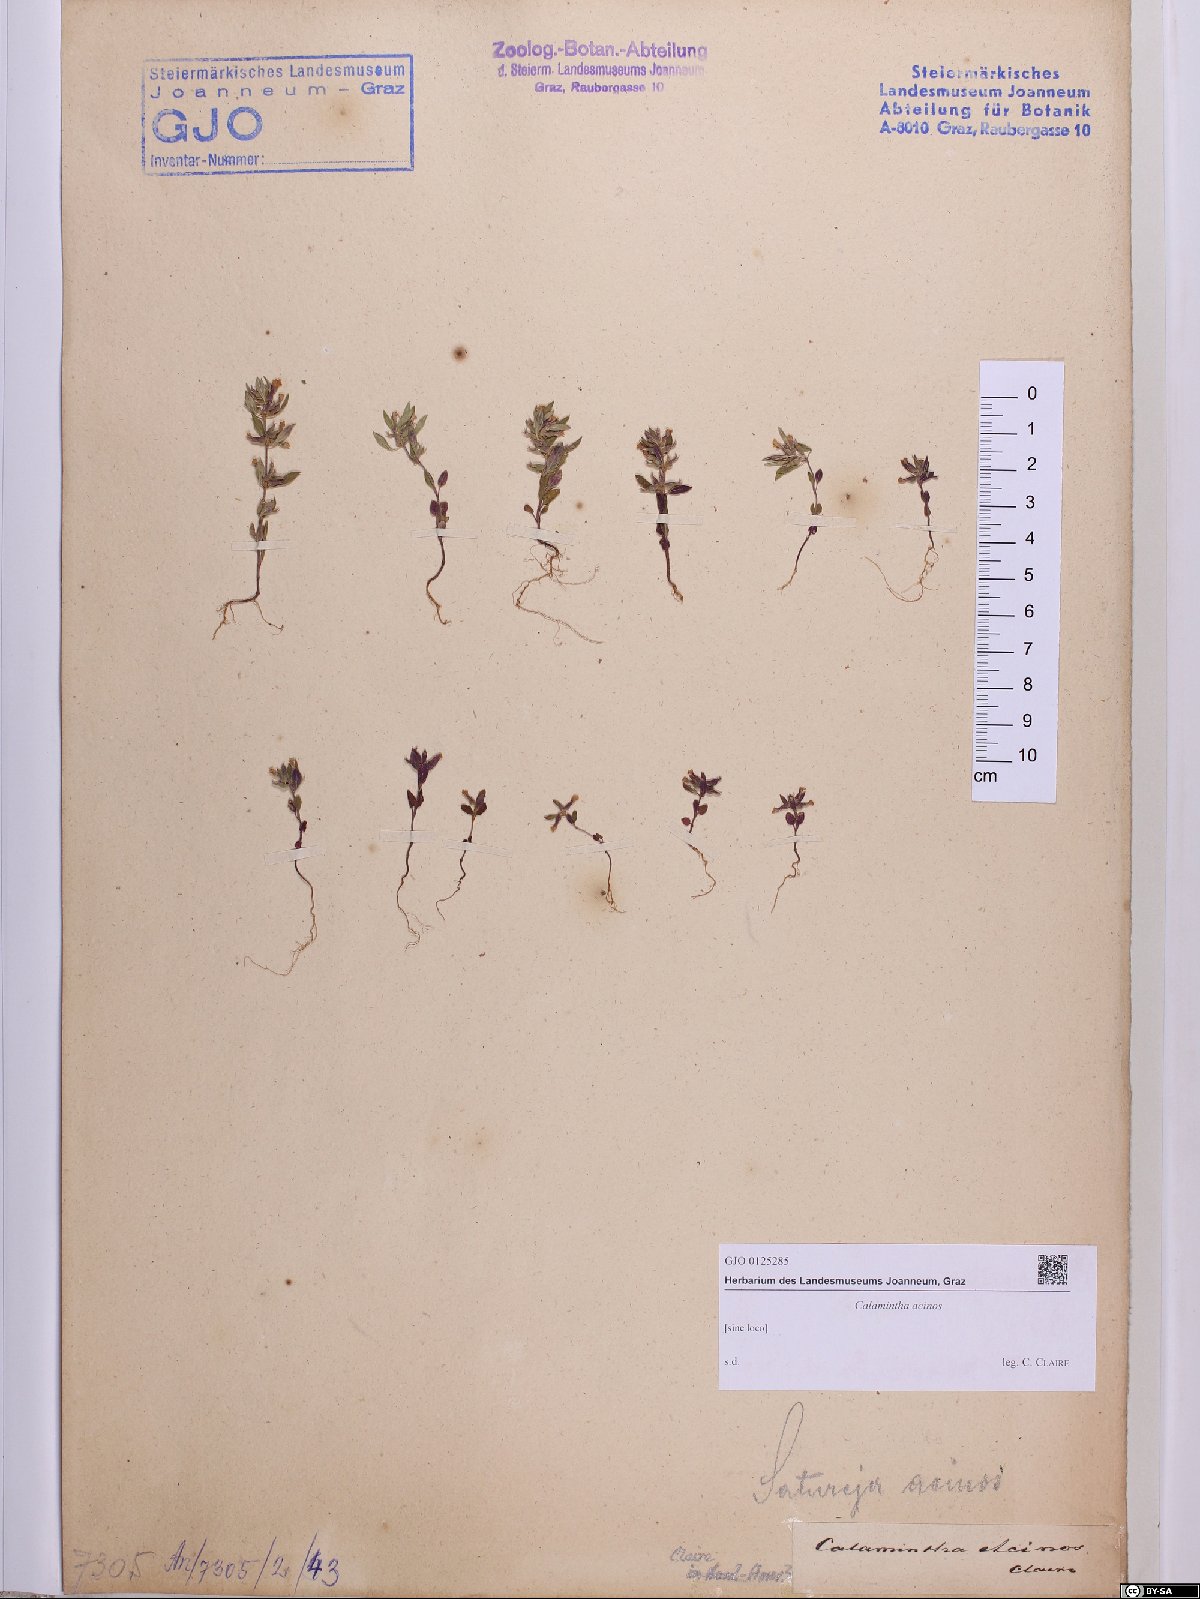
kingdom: Plantae
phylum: Tracheophyta
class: Magnoliopsida
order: Lamiales
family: Lamiaceae
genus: Clinopodium
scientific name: Clinopodium acinos
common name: Basil thyme
